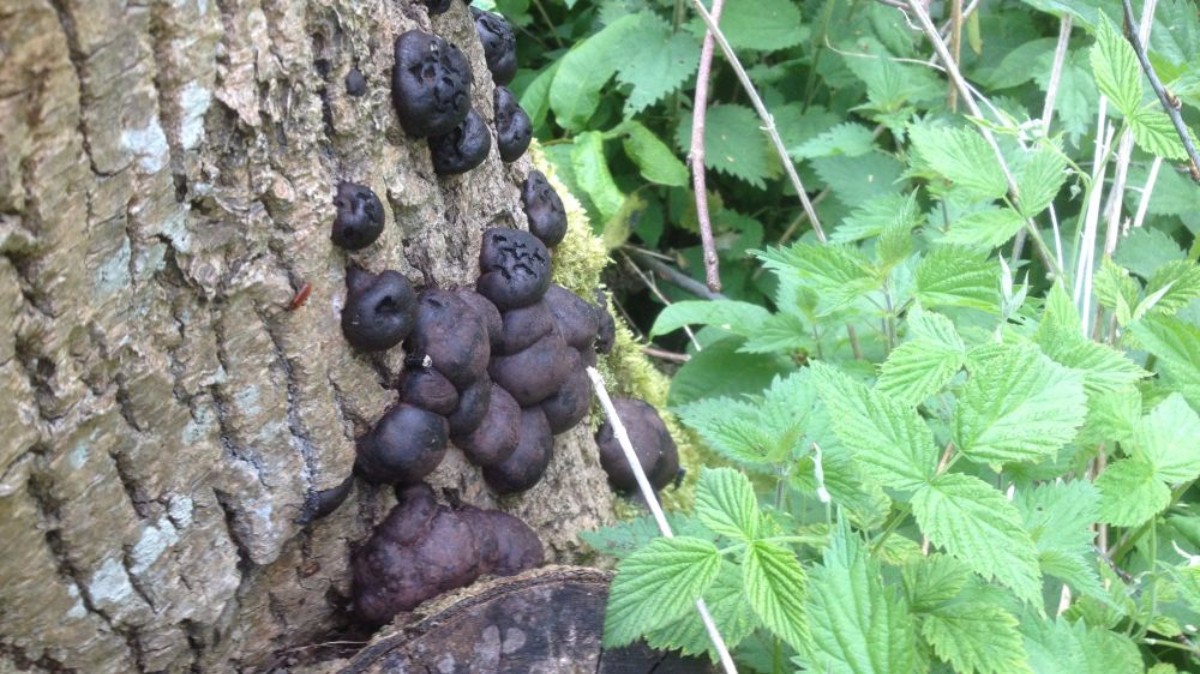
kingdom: Fungi
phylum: Ascomycota
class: Sordariomycetes
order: Xylariales
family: Hypoxylaceae
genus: Daldinia
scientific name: Daldinia concentrica
